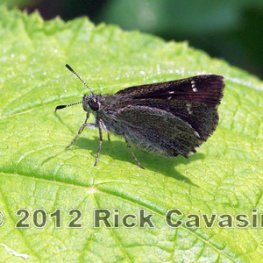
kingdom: Animalia
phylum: Arthropoda
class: Insecta
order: Lepidoptera
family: Hesperiidae
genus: Mastor
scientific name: Mastor hegon
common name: Pepper and Salt Skipper
